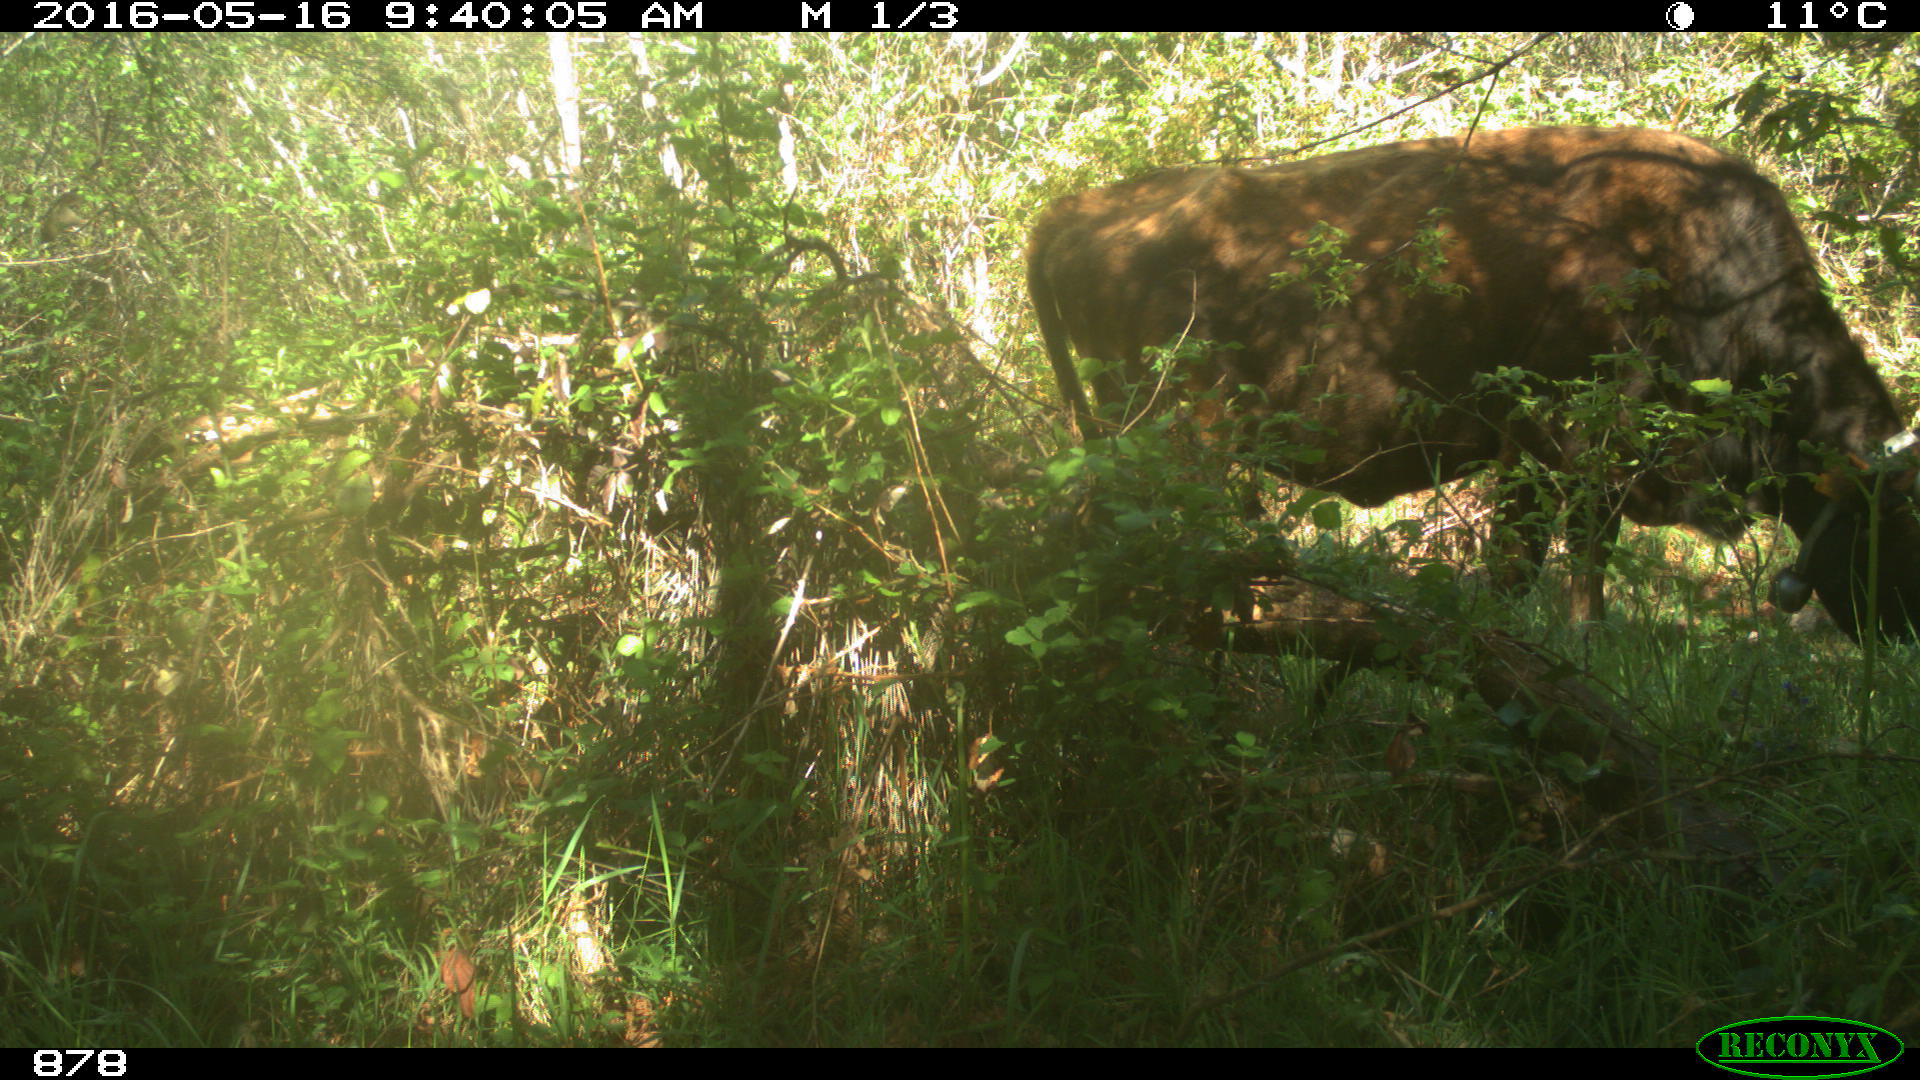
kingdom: Animalia
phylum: Chordata
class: Mammalia
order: Artiodactyla
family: Bovidae
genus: Bos
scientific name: Bos taurus
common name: Domesticated cattle
